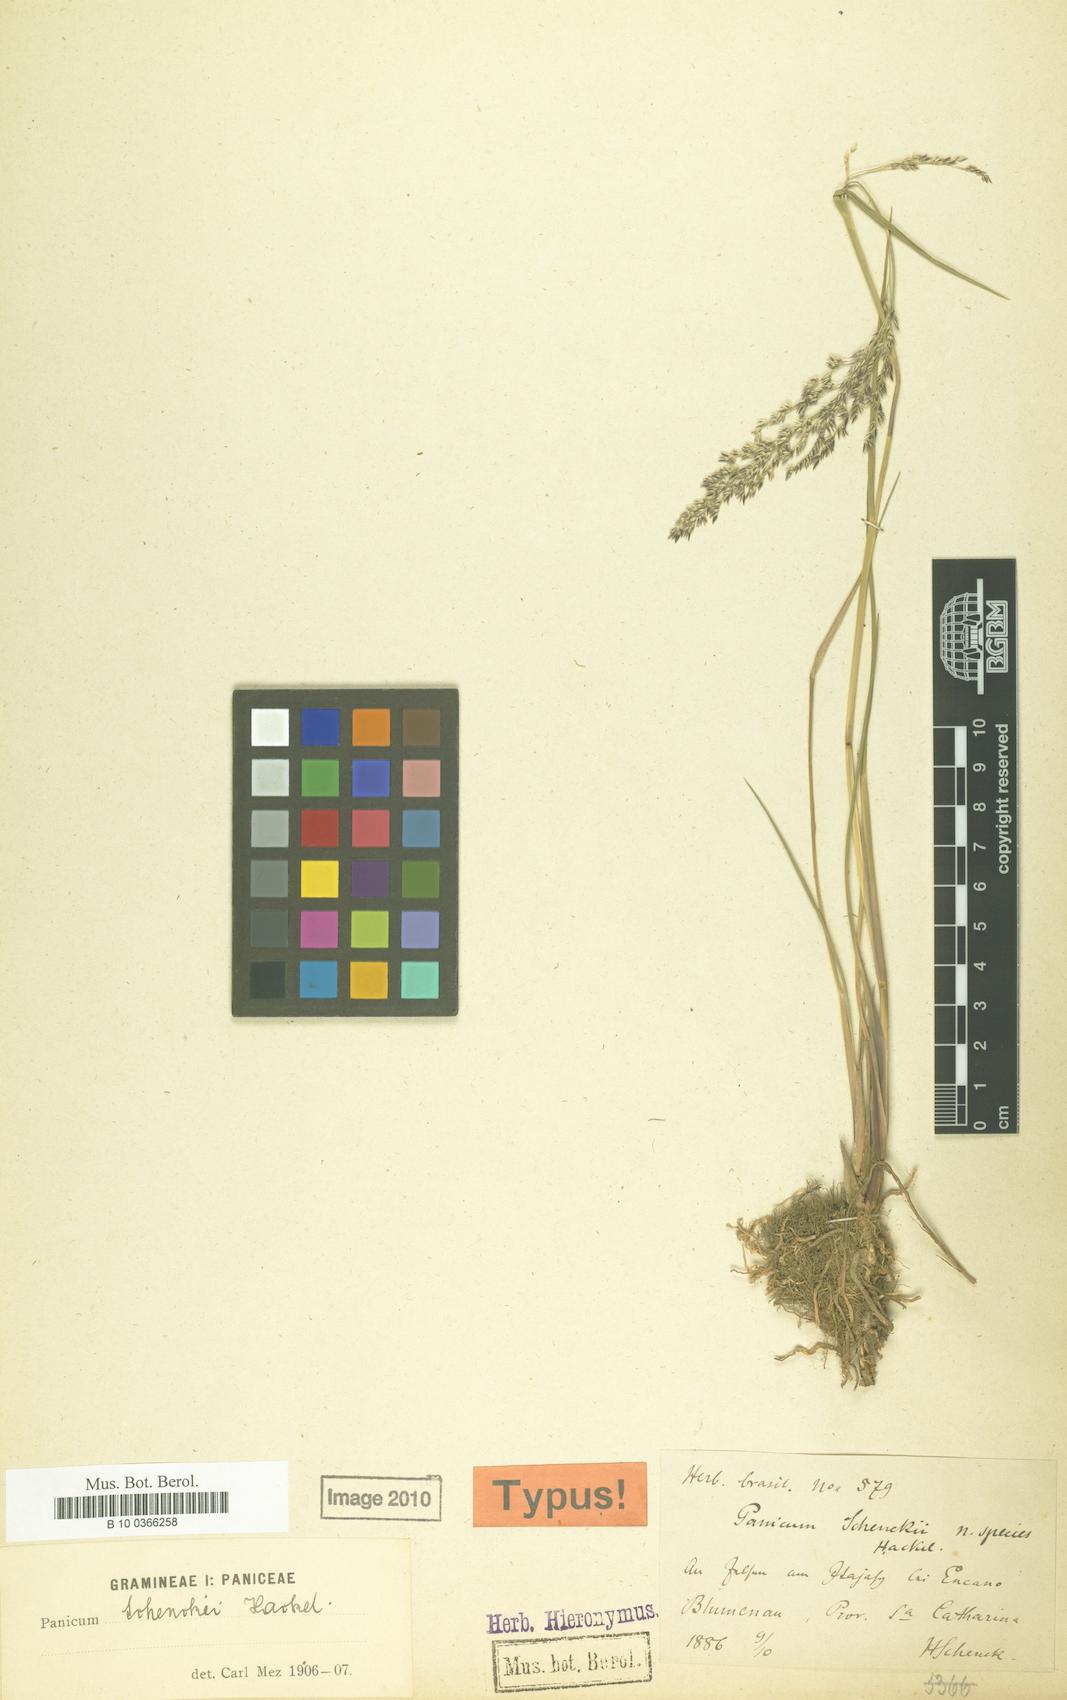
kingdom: Plantae
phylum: Tracheophyta
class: Liliopsida
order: Poales
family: Poaceae
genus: Steinchisma
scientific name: Steinchisma spathellosum
